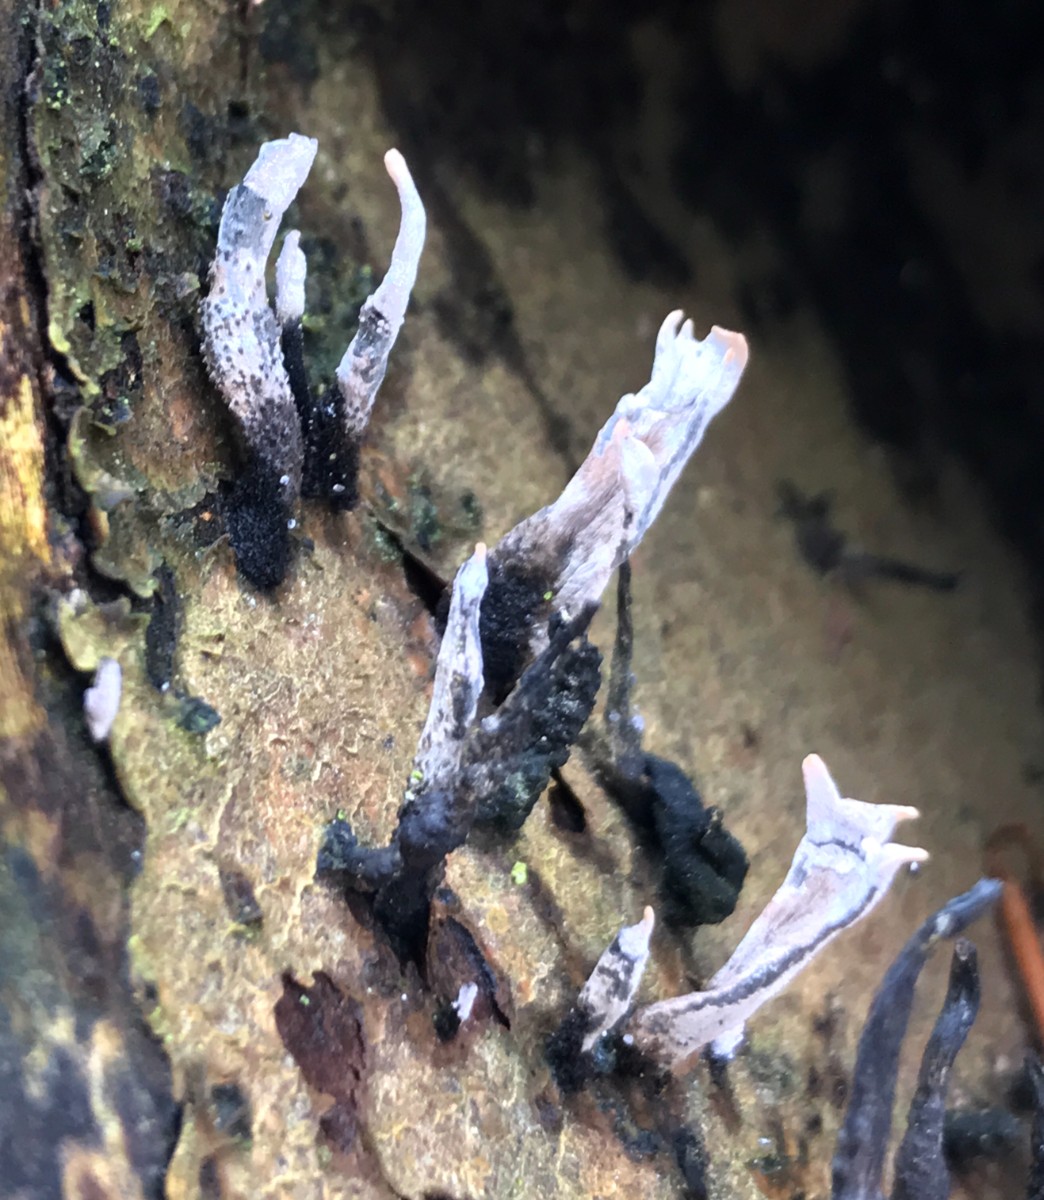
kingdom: Fungi
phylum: Ascomycota
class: Sordariomycetes
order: Xylariales
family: Xylariaceae
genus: Xylaria
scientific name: Xylaria hypoxylon
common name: grenet stødsvamp
